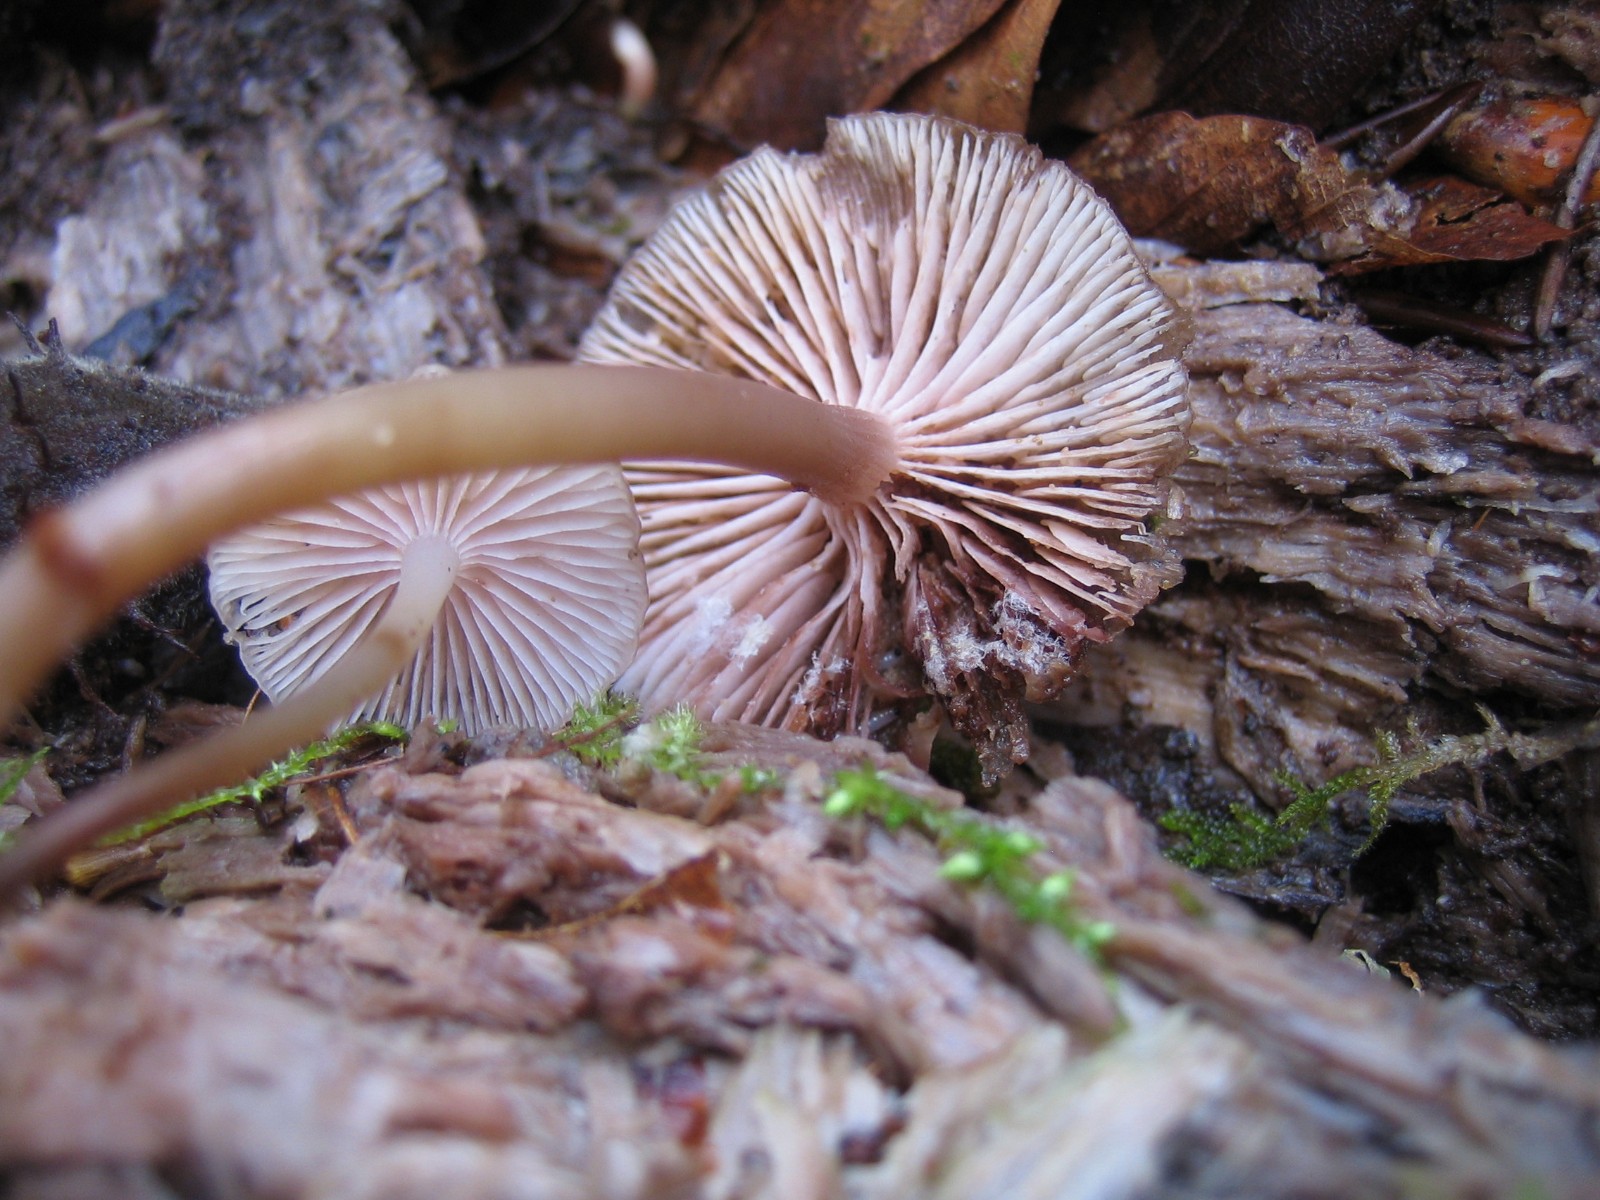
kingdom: Fungi
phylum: Basidiomycota
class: Agaricomycetes
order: Agaricales
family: Mycenaceae
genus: Mycena
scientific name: Mycena tintinnabulum
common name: vinter-huesvamp
